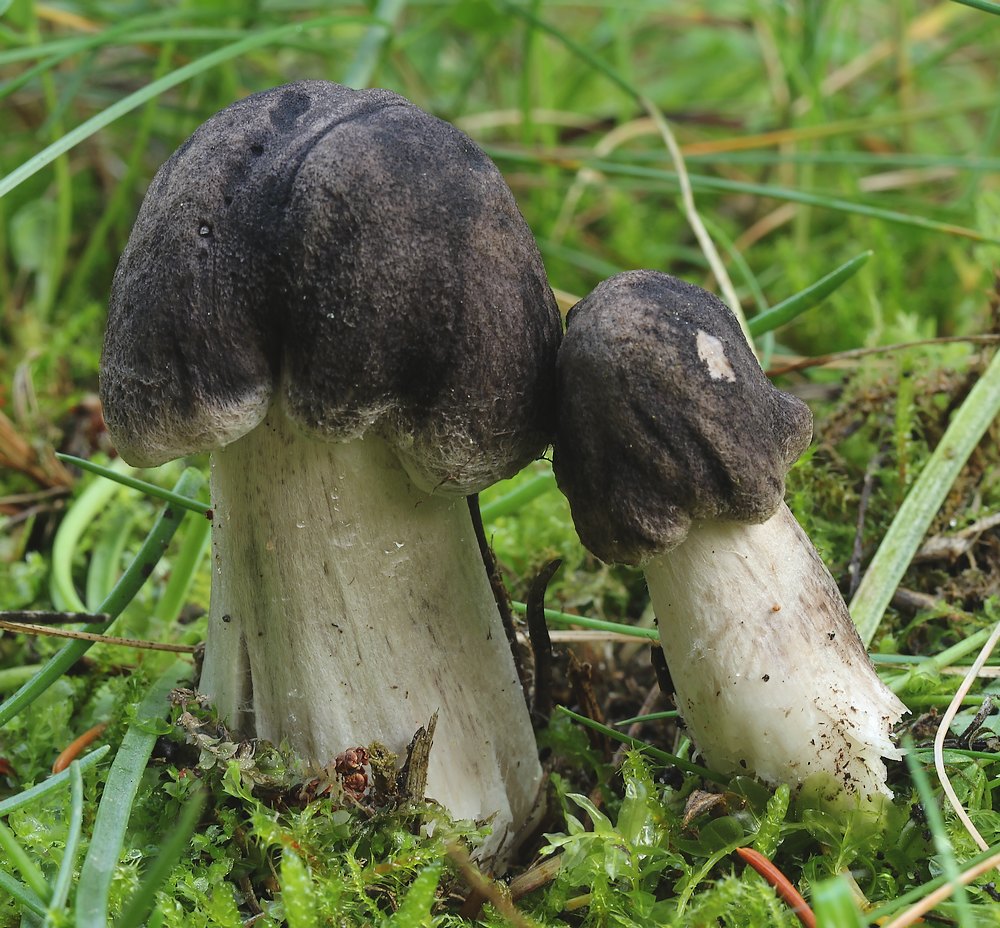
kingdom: Fungi
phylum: Basidiomycota
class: Agaricomycetes
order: Agaricales
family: Tricholomataceae
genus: Tricholoma
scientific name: Tricholoma terreum
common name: jordfarvet ridderhat
